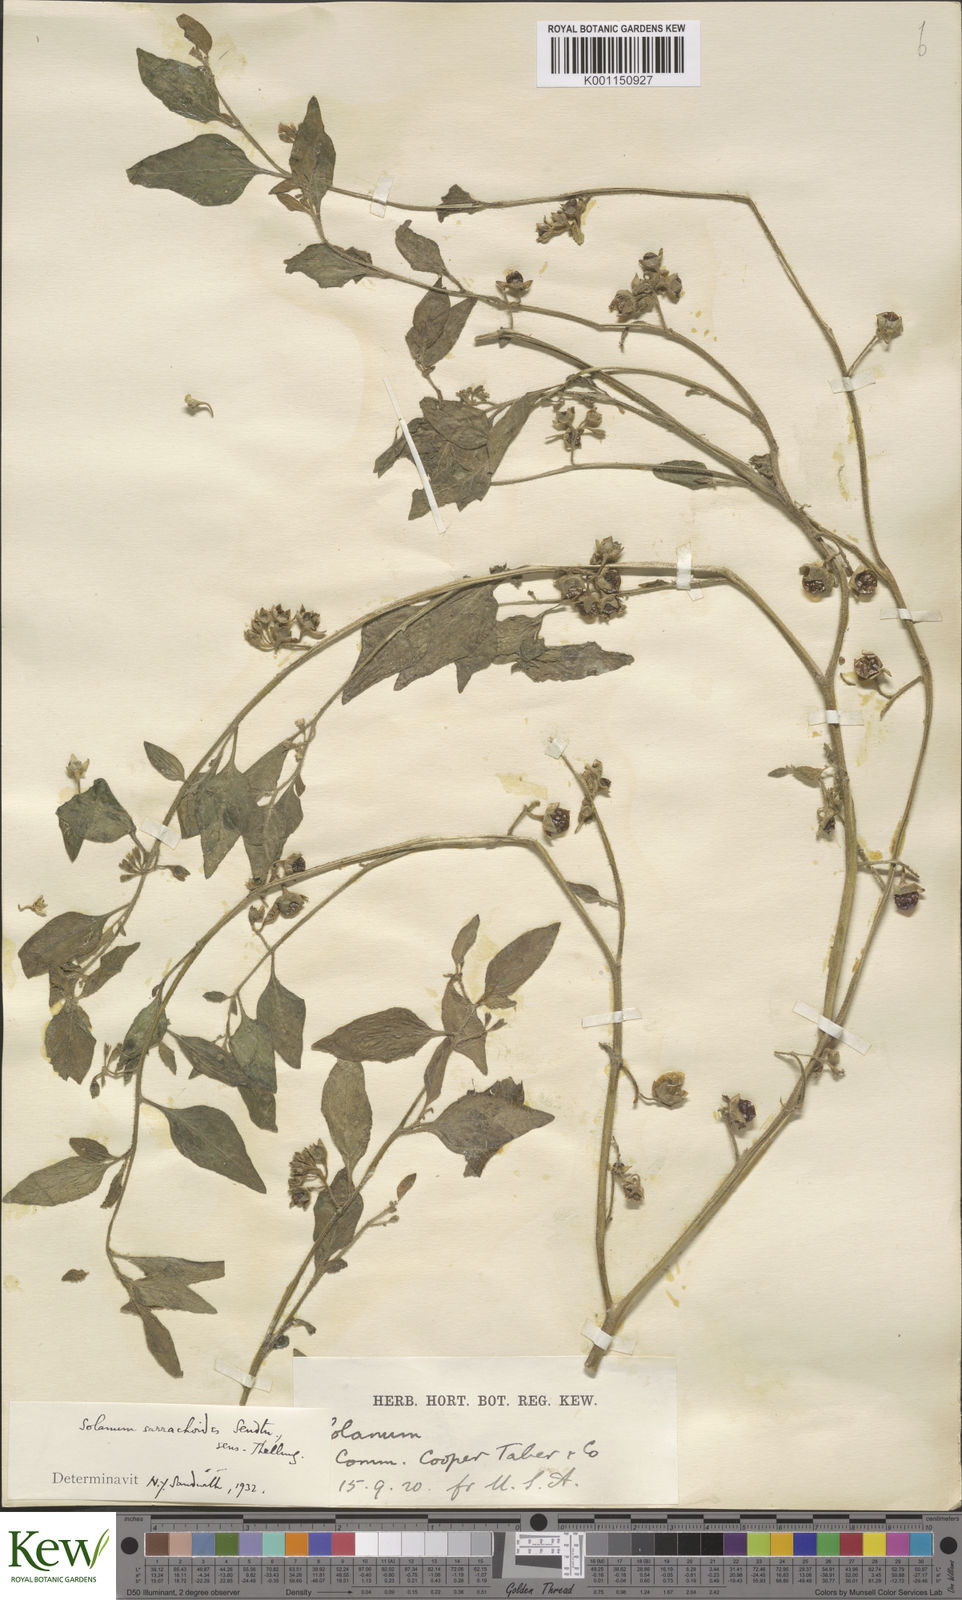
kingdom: Plantae
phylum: Tracheophyta
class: Magnoliopsida
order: Solanales
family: Solanaceae
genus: Solanum
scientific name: Solanum nitidibaccatum
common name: Hairy nightshade
